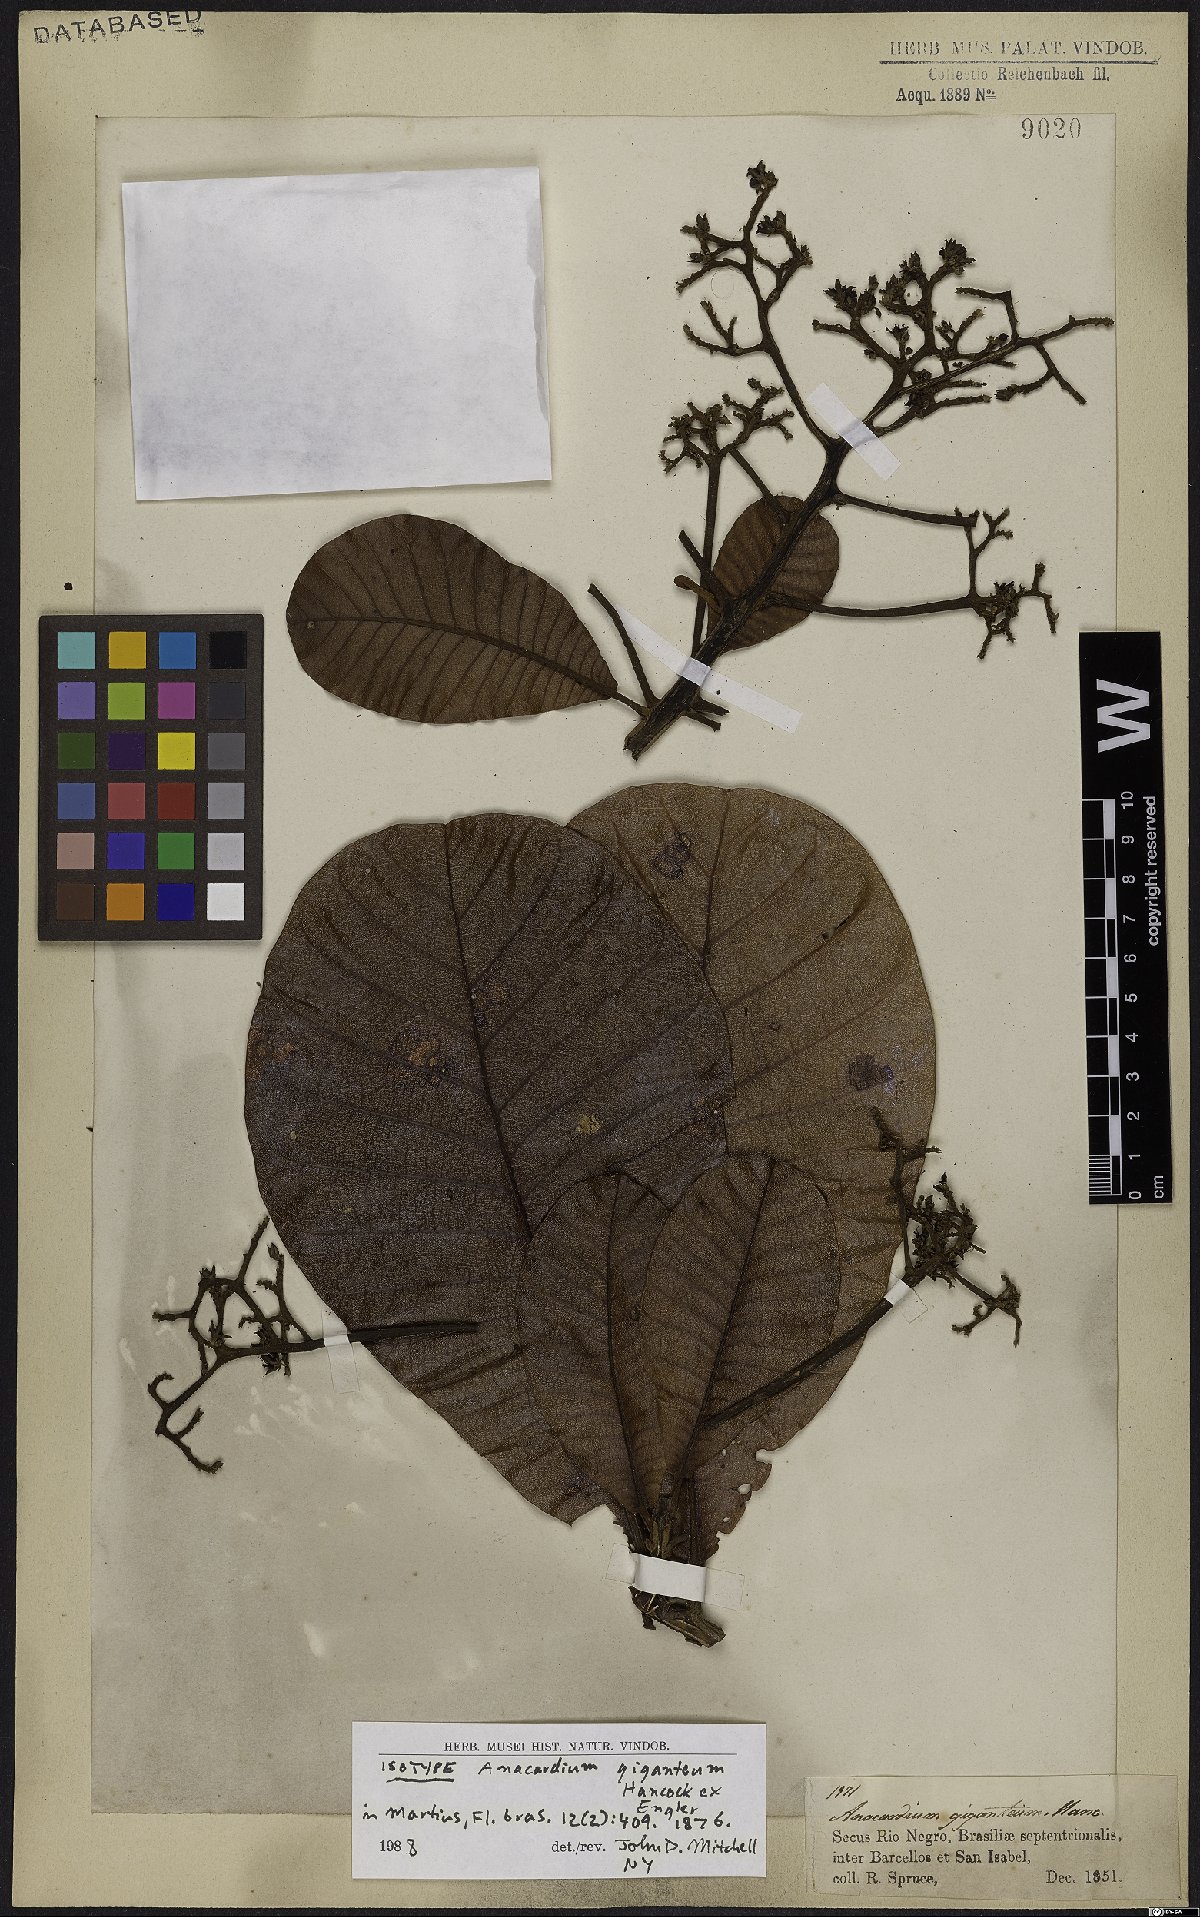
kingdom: Plantae
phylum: Tracheophyta
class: Magnoliopsida
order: Sapindales
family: Anacardiaceae
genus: Anacardium
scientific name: Anacardium giganteum
